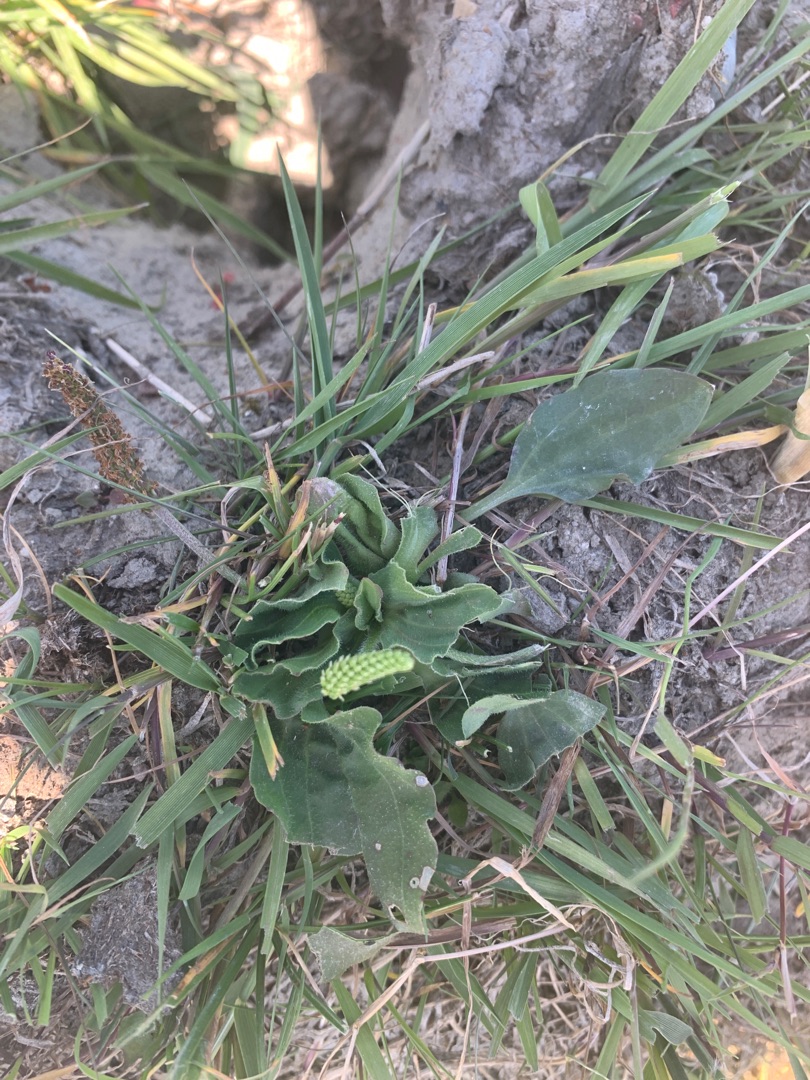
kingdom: Plantae
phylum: Tracheophyta
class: Magnoliopsida
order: Lamiales
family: Plantaginaceae
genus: Plantago
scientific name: Plantago major
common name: Glat vejbred
